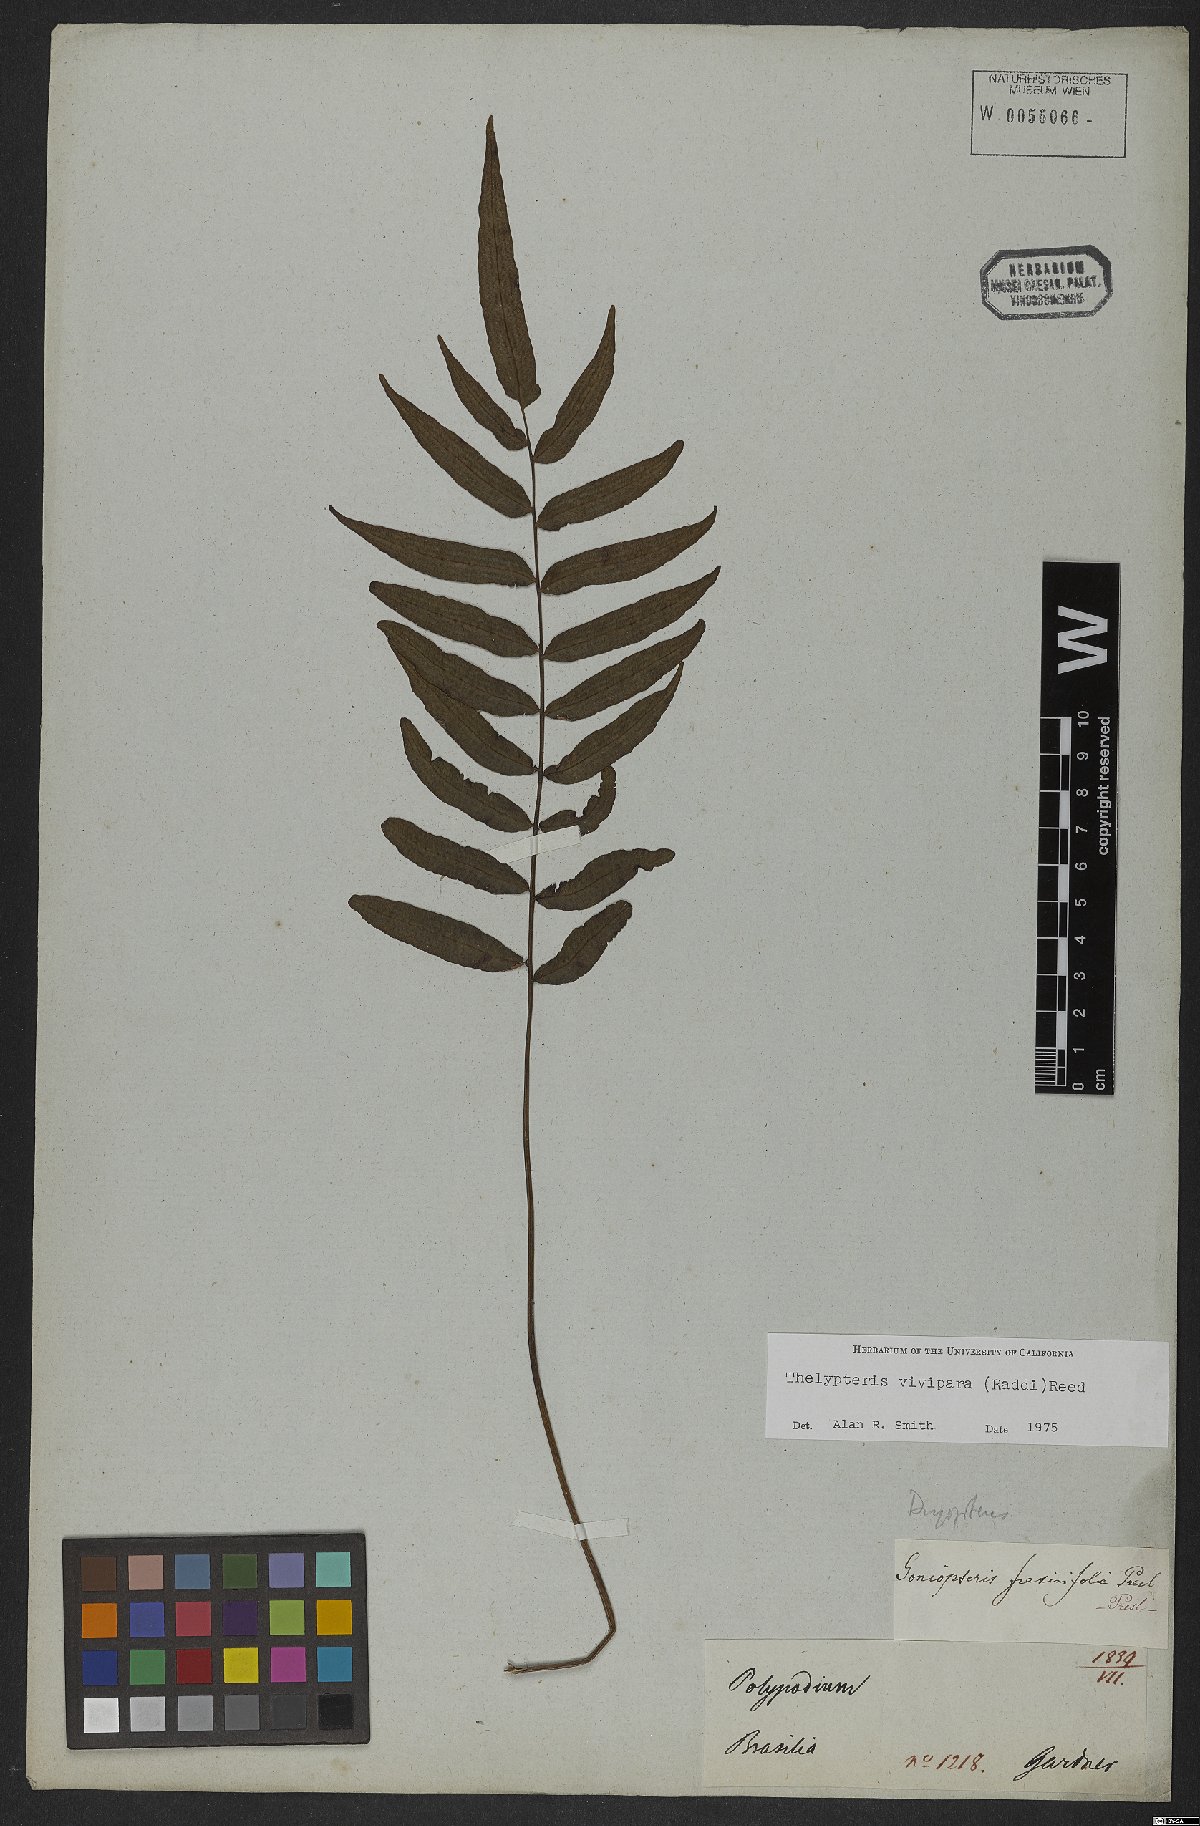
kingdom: Plantae
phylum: Tracheophyta
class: Polypodiopsida
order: Polypodiales
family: Thelypteridaceae
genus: Goniopteris
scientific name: Goniopteris vivipara
